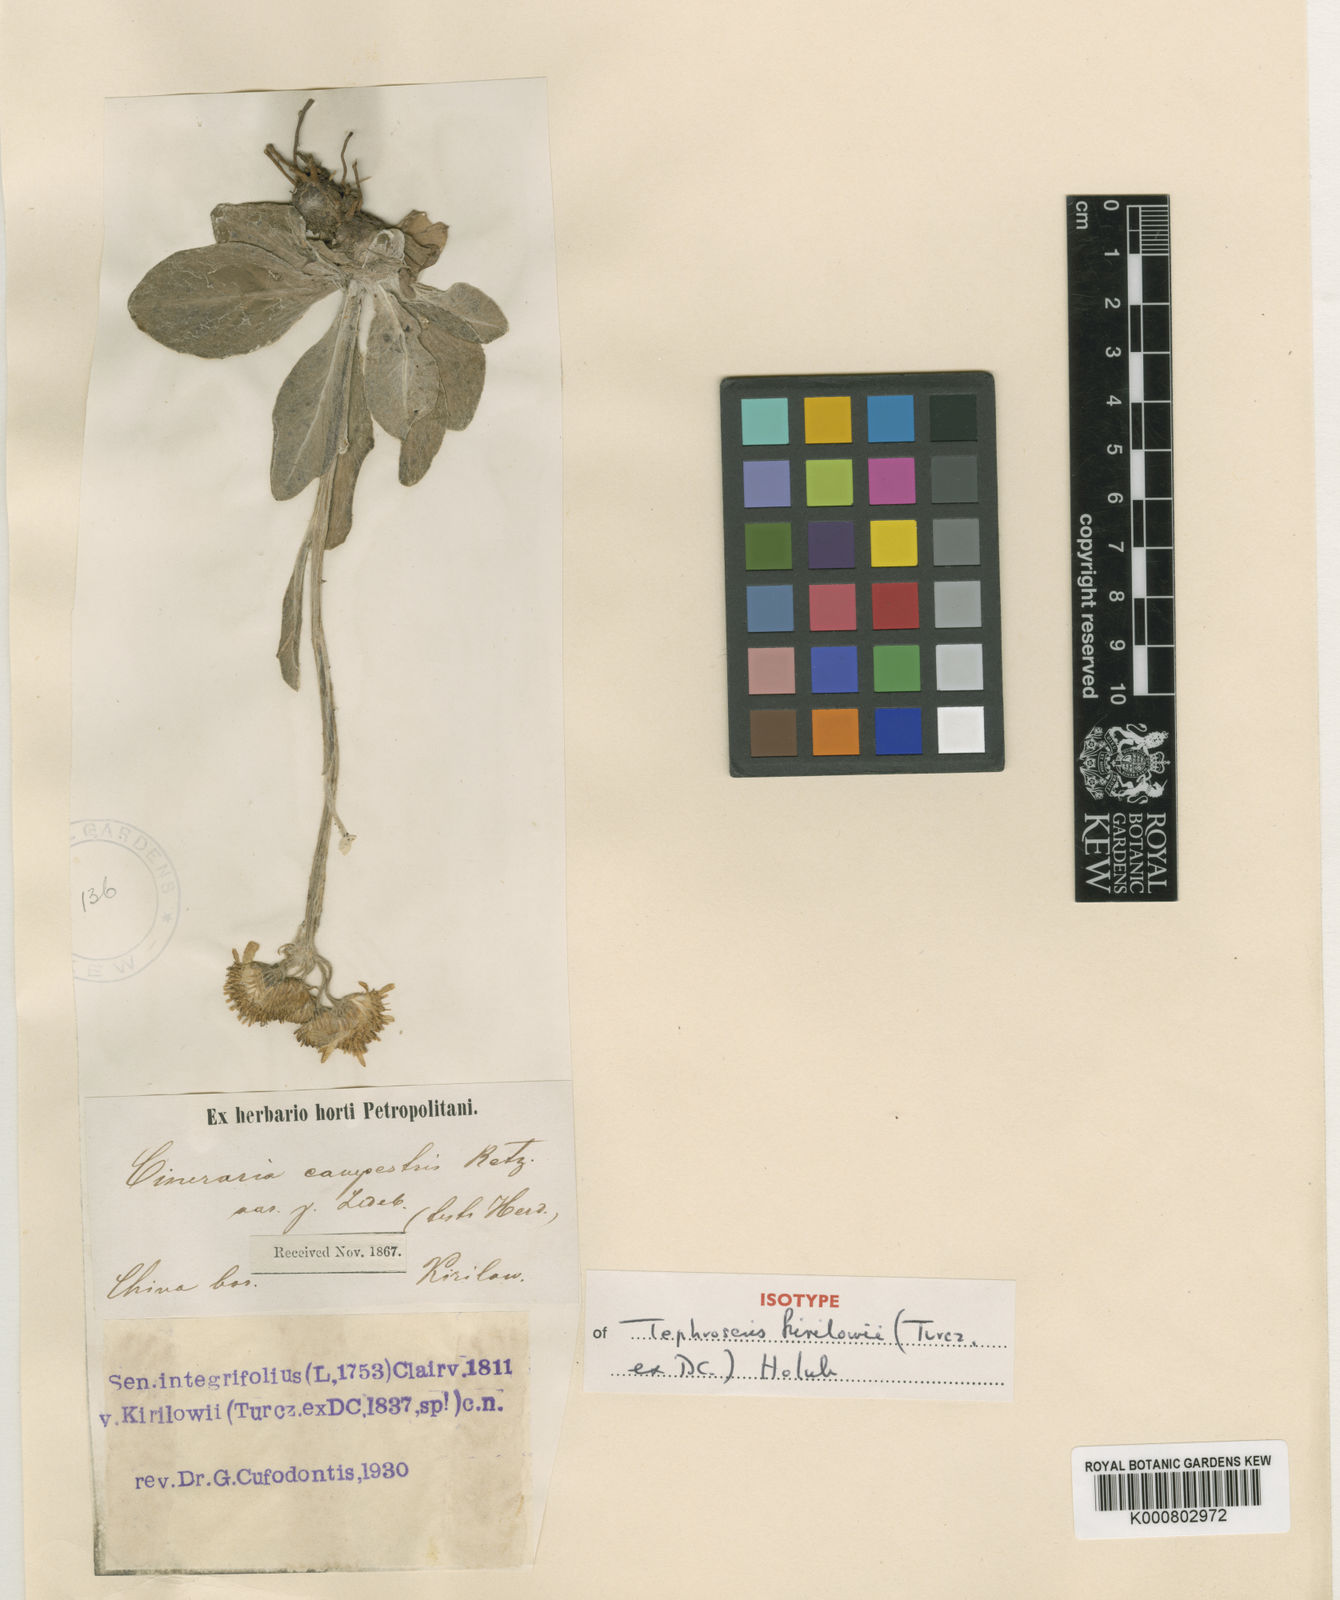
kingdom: Plantae
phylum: Tracheophyta
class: Magnoliopsida
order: Asterales
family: Asteraceae
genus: Tephroseris
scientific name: Tephroseris kirilowii
